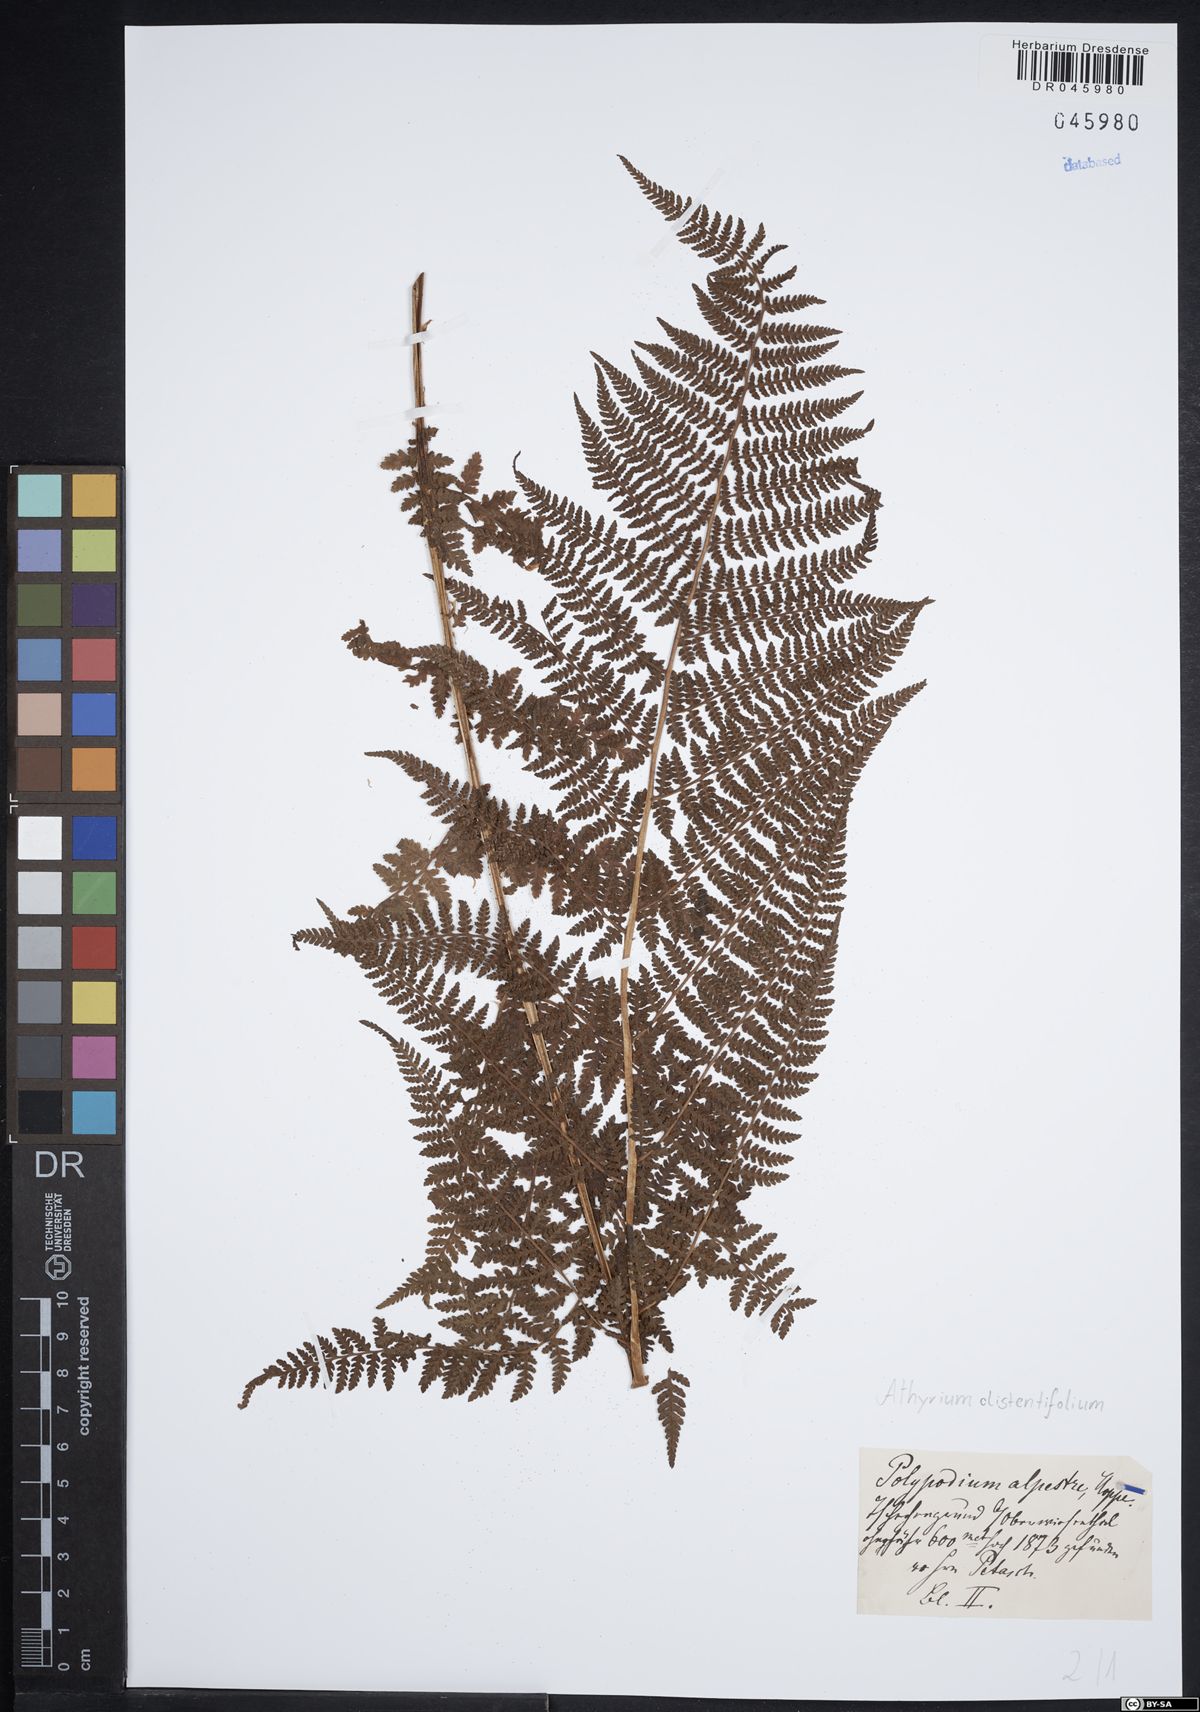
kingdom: Plantae
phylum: Tracheophyta
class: Polypodiopsida
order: Polypodiales
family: Athyriaceae
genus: Pseudathyrium
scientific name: Pseudathyrium alpestre
